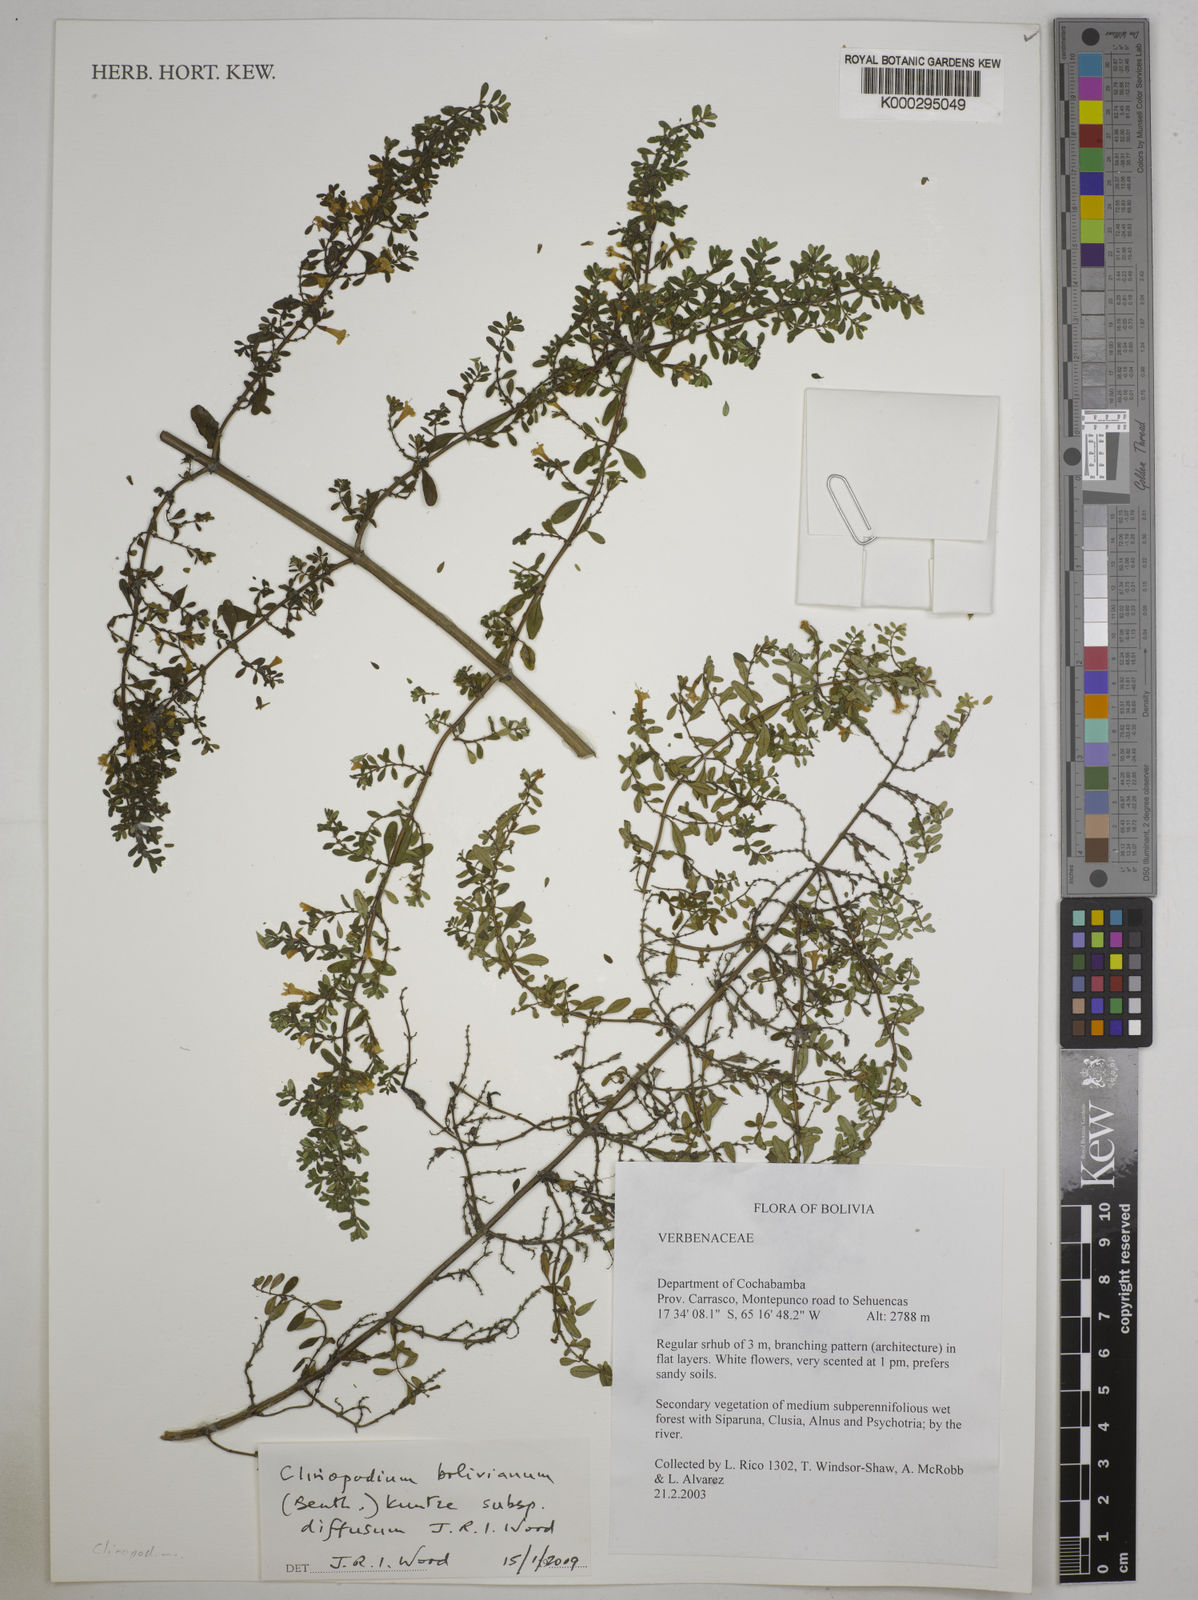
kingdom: Plantae
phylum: Tracheophyta
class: Magnoliopsida
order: Lamiales
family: Lamiaceae
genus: Clinopodium
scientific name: Clinopodium bolivianum
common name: Inca muña
